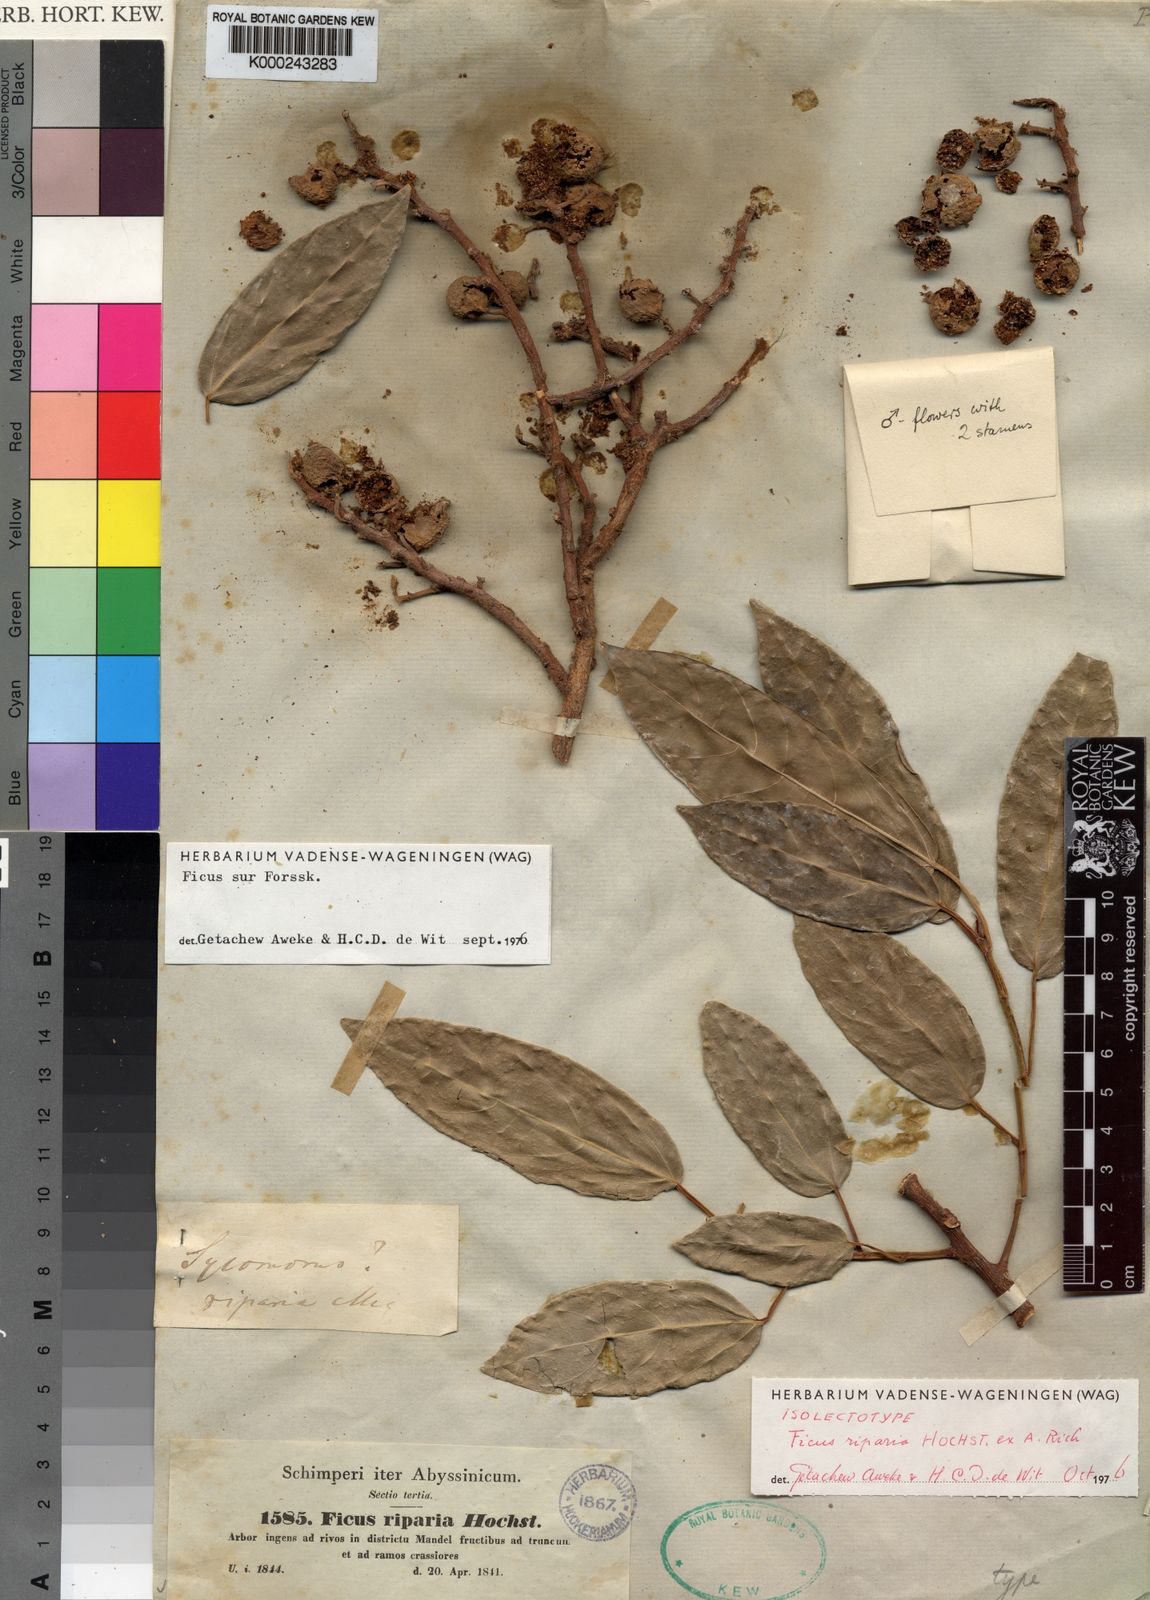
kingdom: Plantae
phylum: Tracheophyta
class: Magnoliopsida
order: Rosales
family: Moraceae
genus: Ficus
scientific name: Ficus sur
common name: Cape fig
